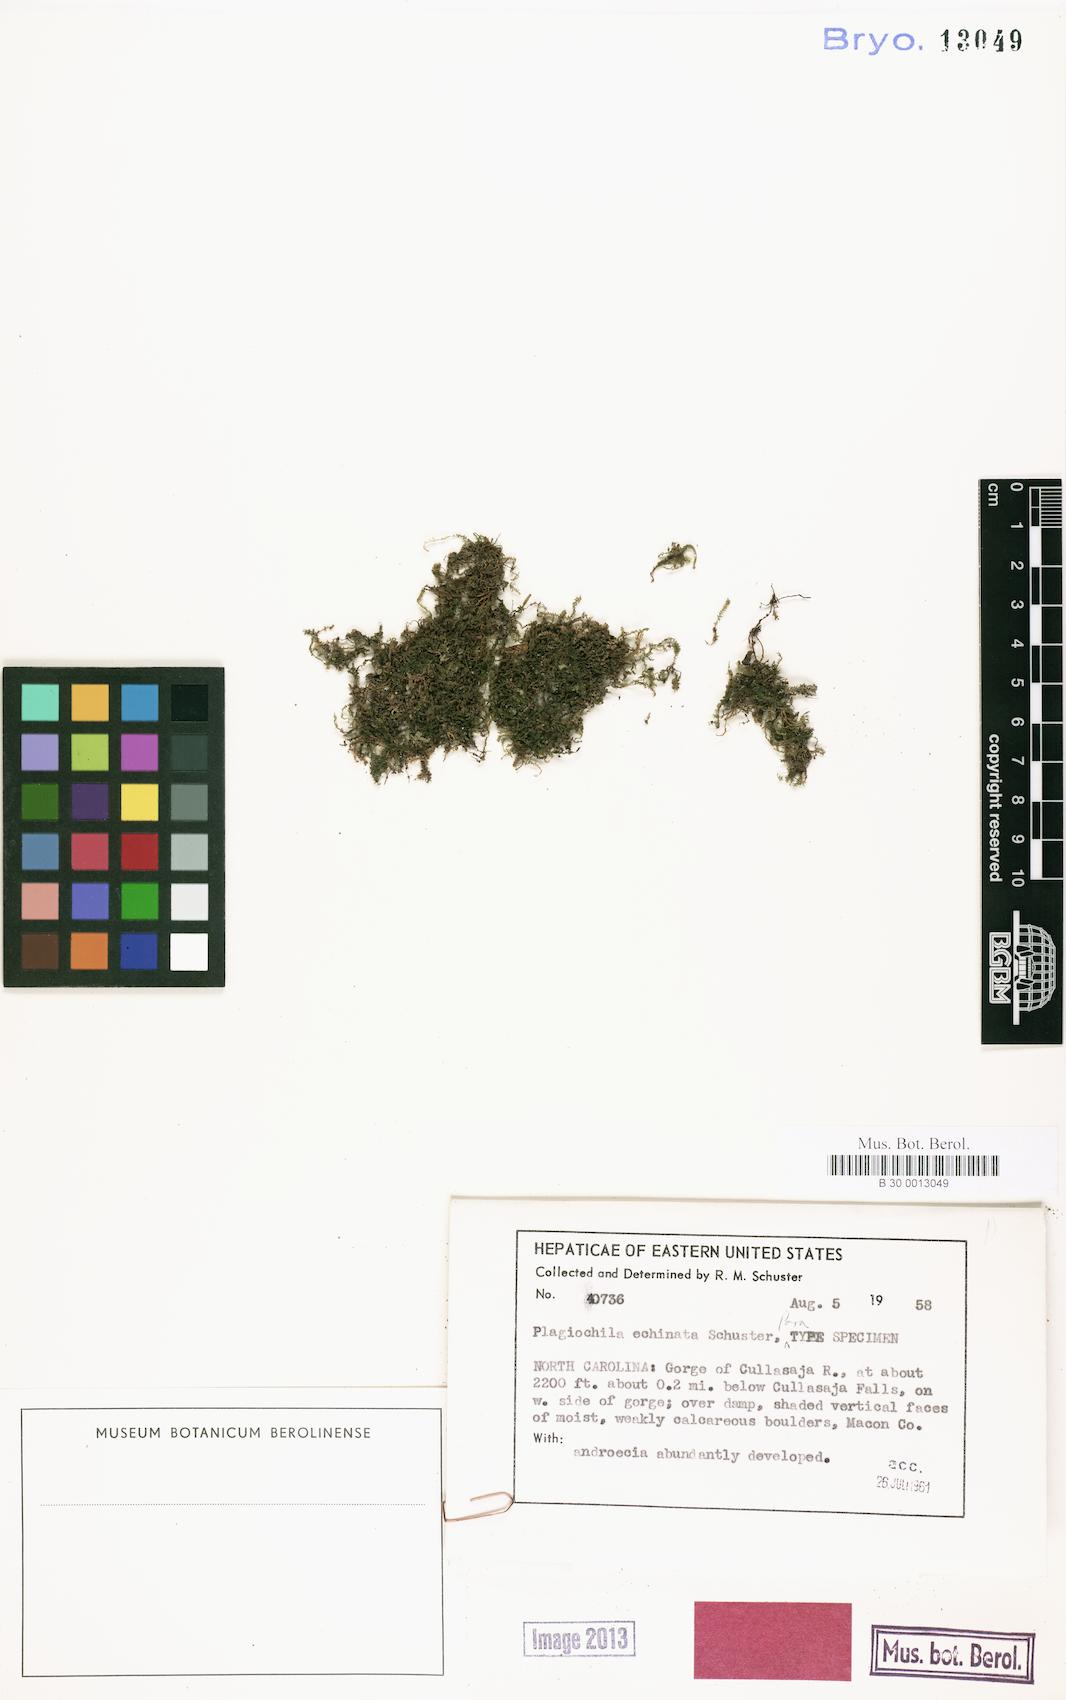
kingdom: Plantae
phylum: Marchantiophyta
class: Jungermanniopsida
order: Jungermanniales
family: Plagiochilaceae
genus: Plagiochila
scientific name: Plagiochila echinata
